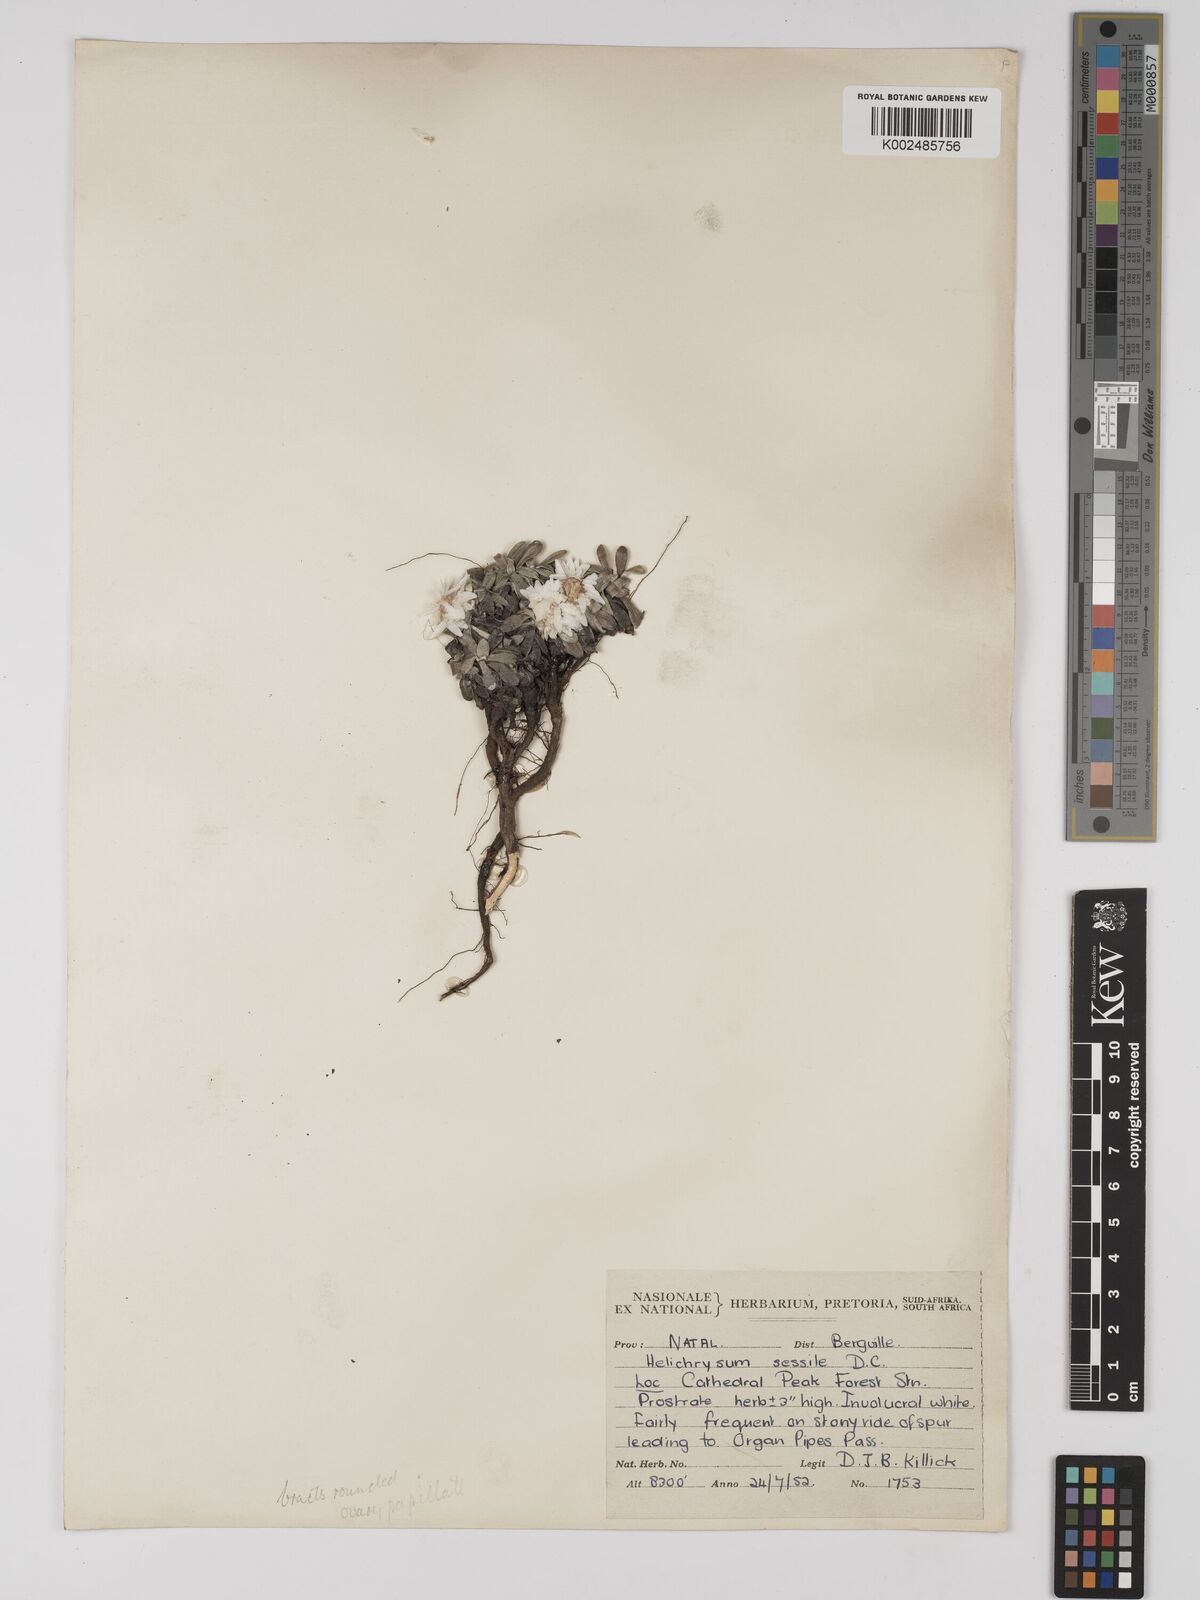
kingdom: Plantae
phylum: Tracheophyta
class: Magnoliopsida
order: Asterales
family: Asteraceae
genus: Helichrysum
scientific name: Helichrysum sessilioides
